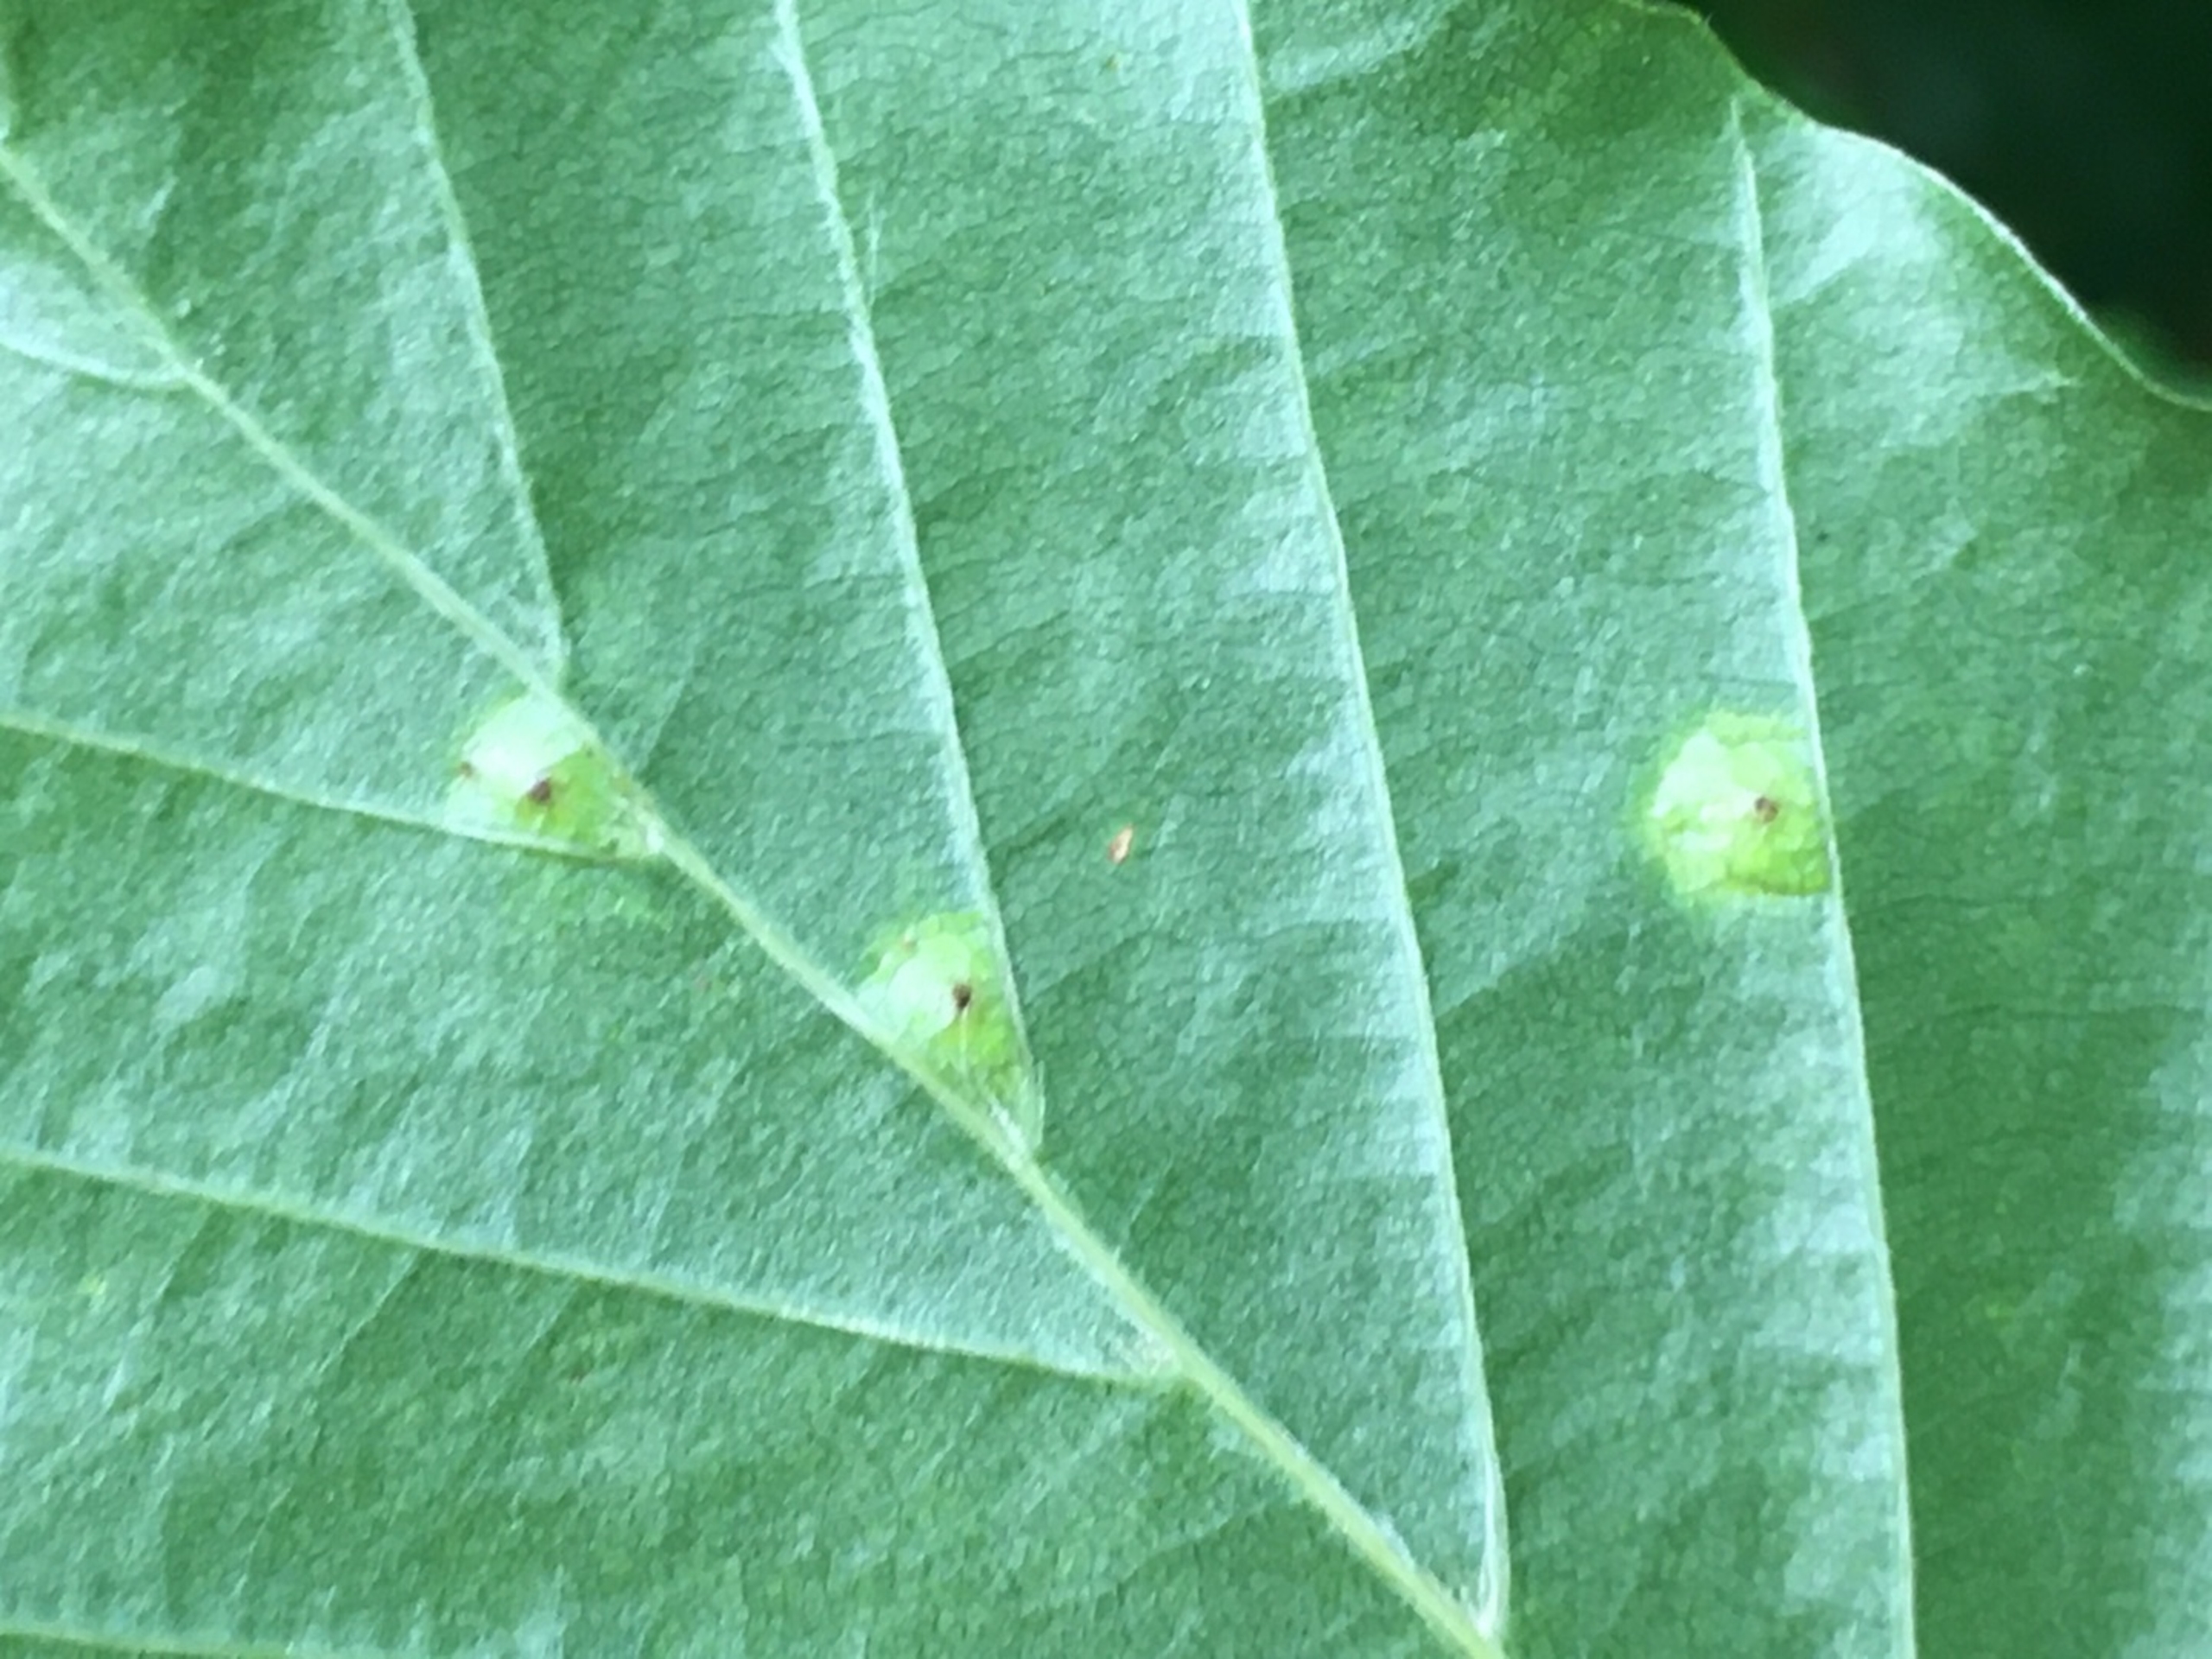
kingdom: Animalia
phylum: Arthropoda
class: Insecta
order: Diptera
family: Cecidomyiidae
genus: Hartigiola
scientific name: Hartigiola annulipes
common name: Skovtroldegalmyg
